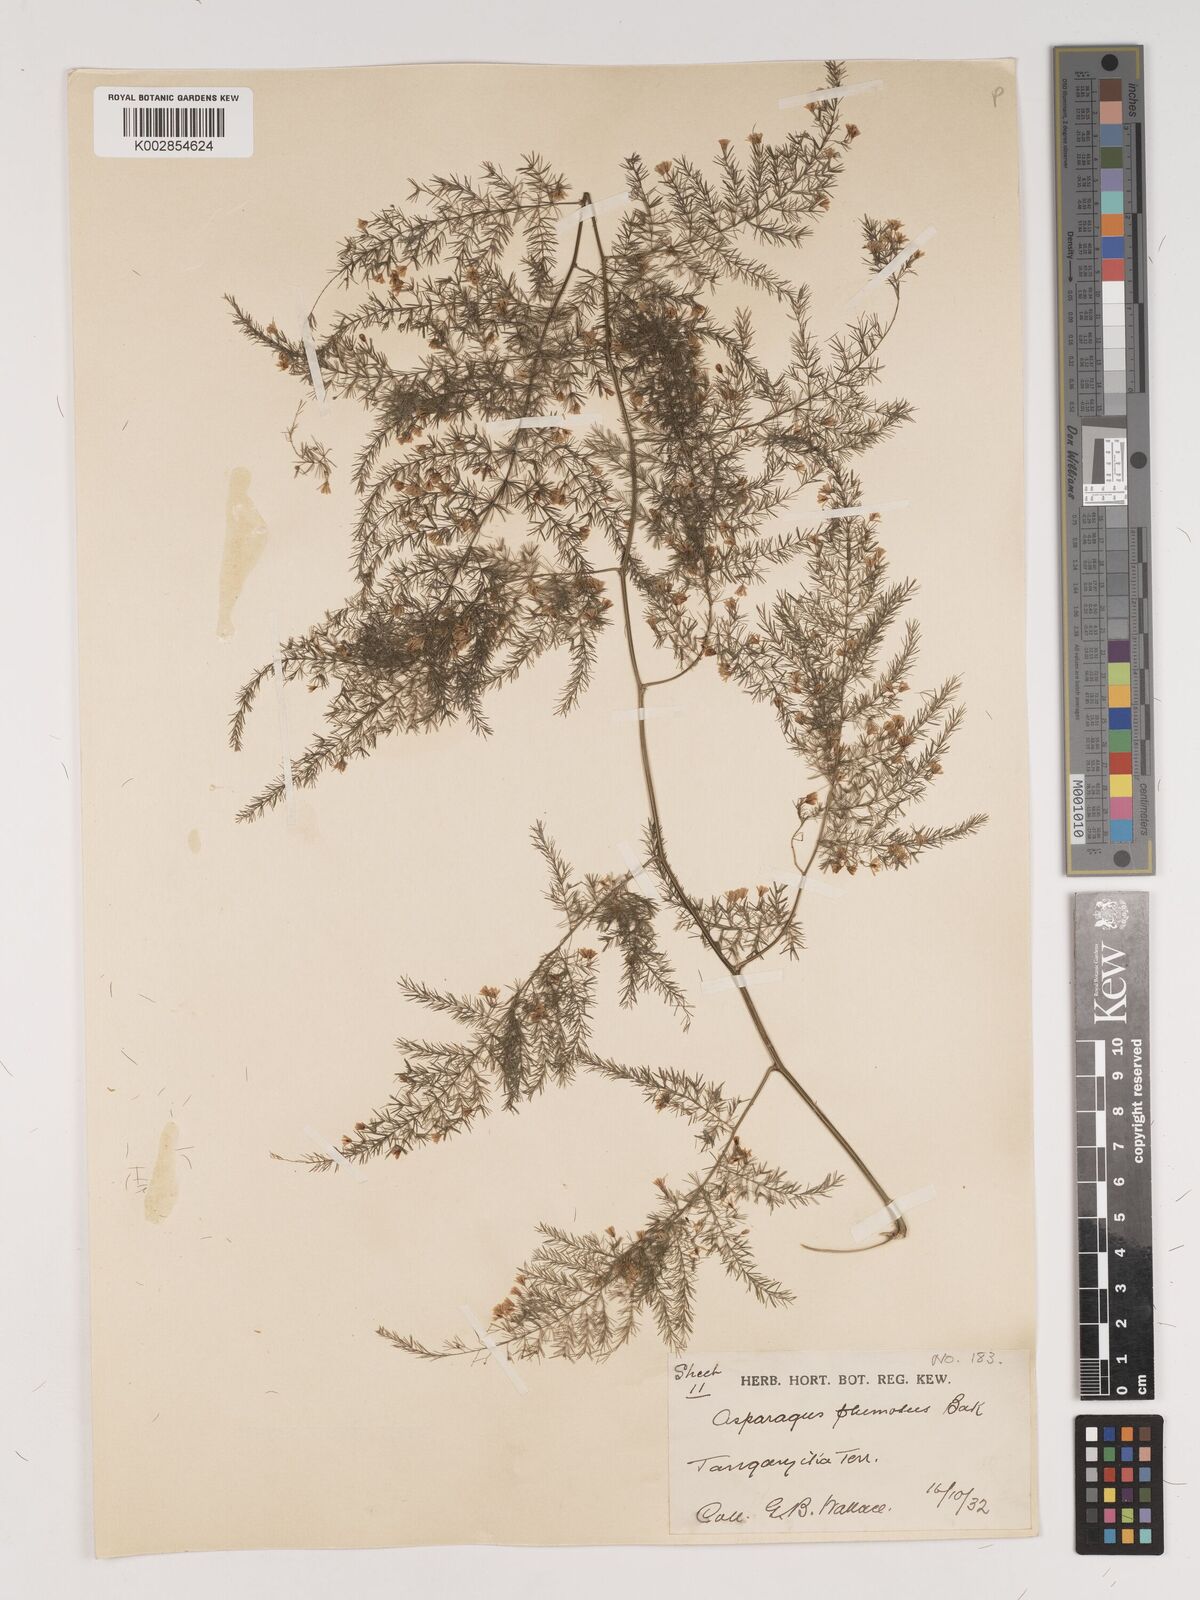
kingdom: Plantae
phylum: Tracheophyta
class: Liliopsida
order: Asparagales
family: Asparagaceae
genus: Asparagus
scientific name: Asparagus setaceus
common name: Common asparagus fern
